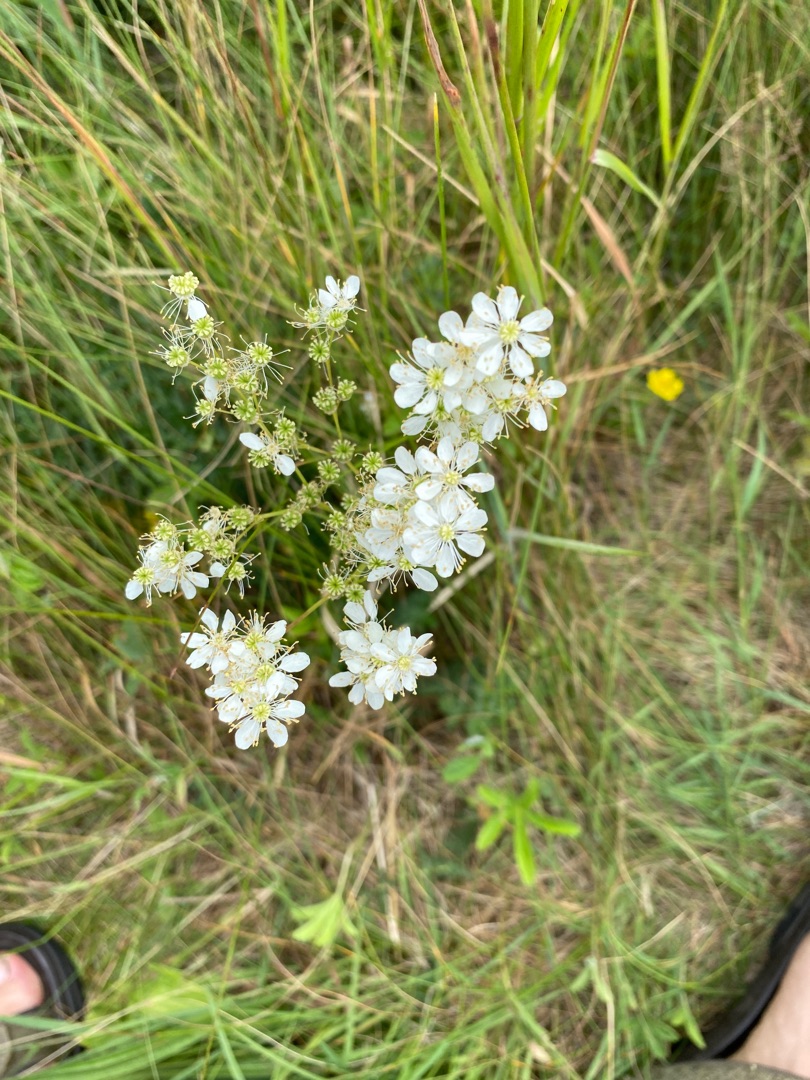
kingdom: Plantae
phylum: Tracheophyta
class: Magnoliopsida
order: Rosales
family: Rosaceae
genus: Filipendula
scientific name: Filipendula vulgaris
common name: Knoldet mjødurt
